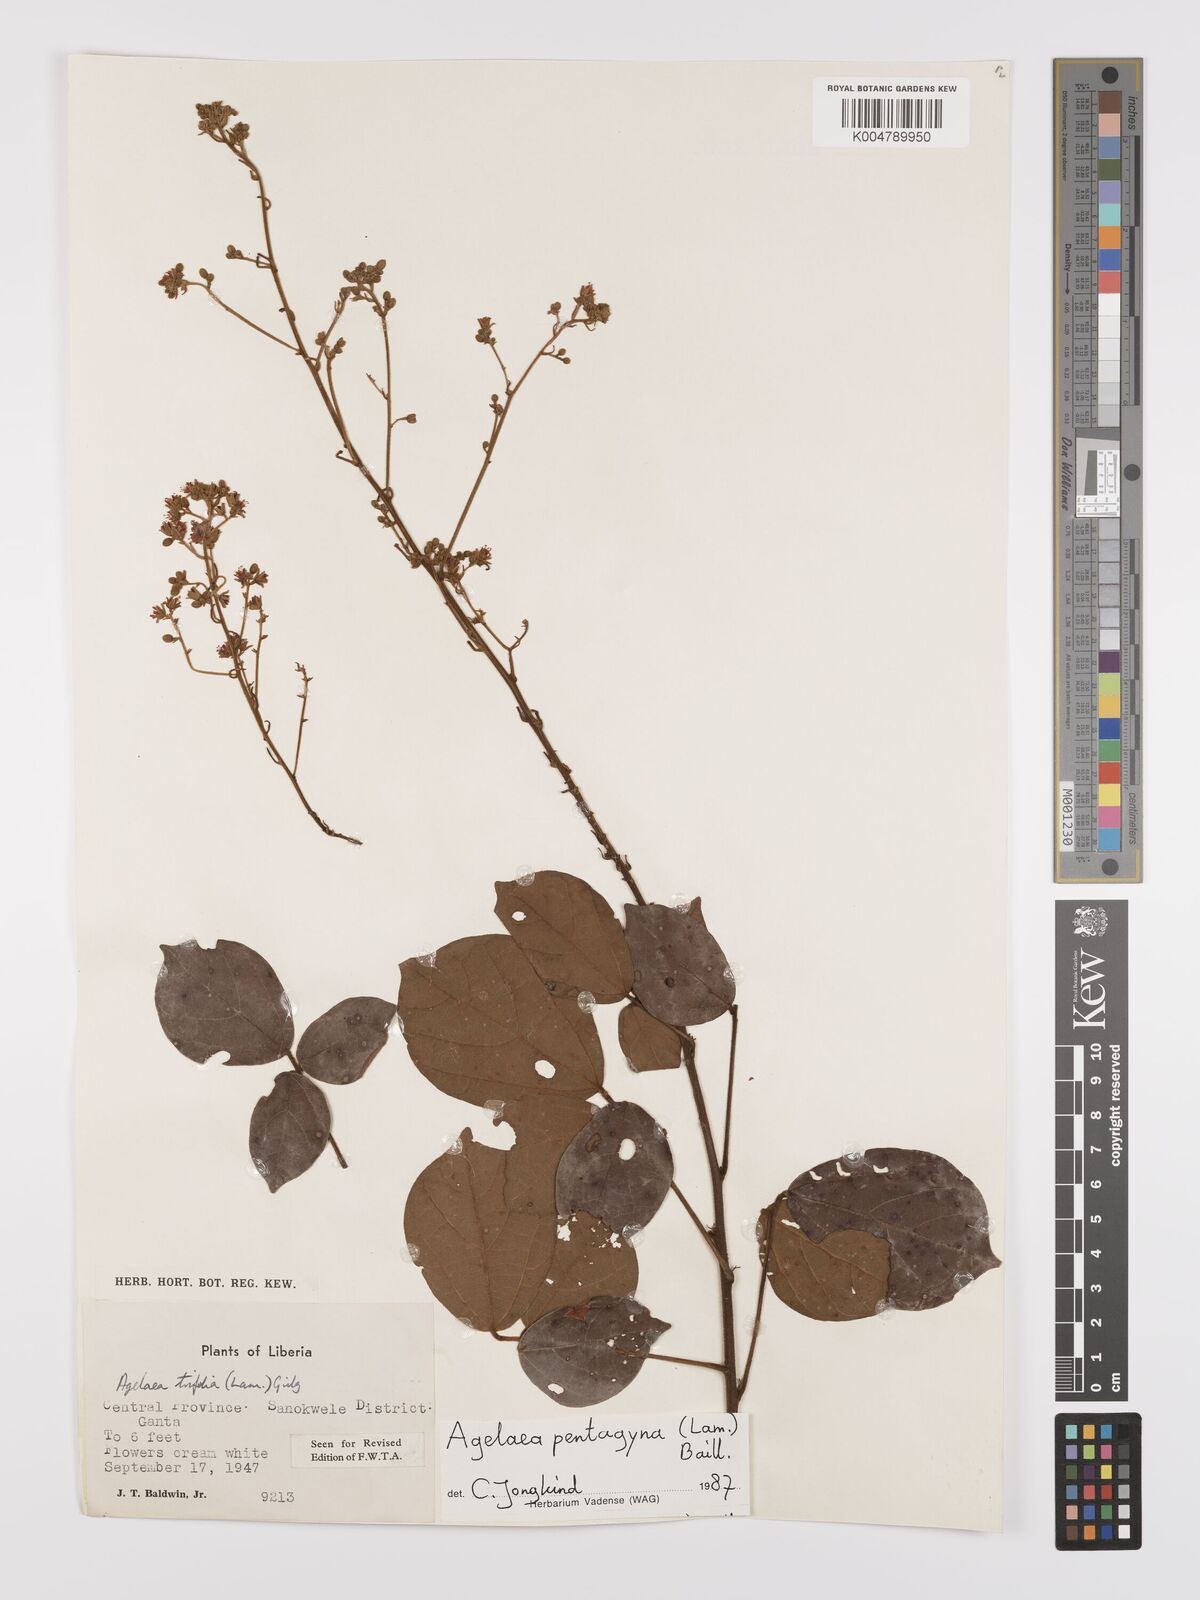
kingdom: Plantae
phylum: Tracheophyta
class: Magnoliopsida
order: Oxalidales
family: Connaraceae
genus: Agelaea
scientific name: Agelaea pentagyna
